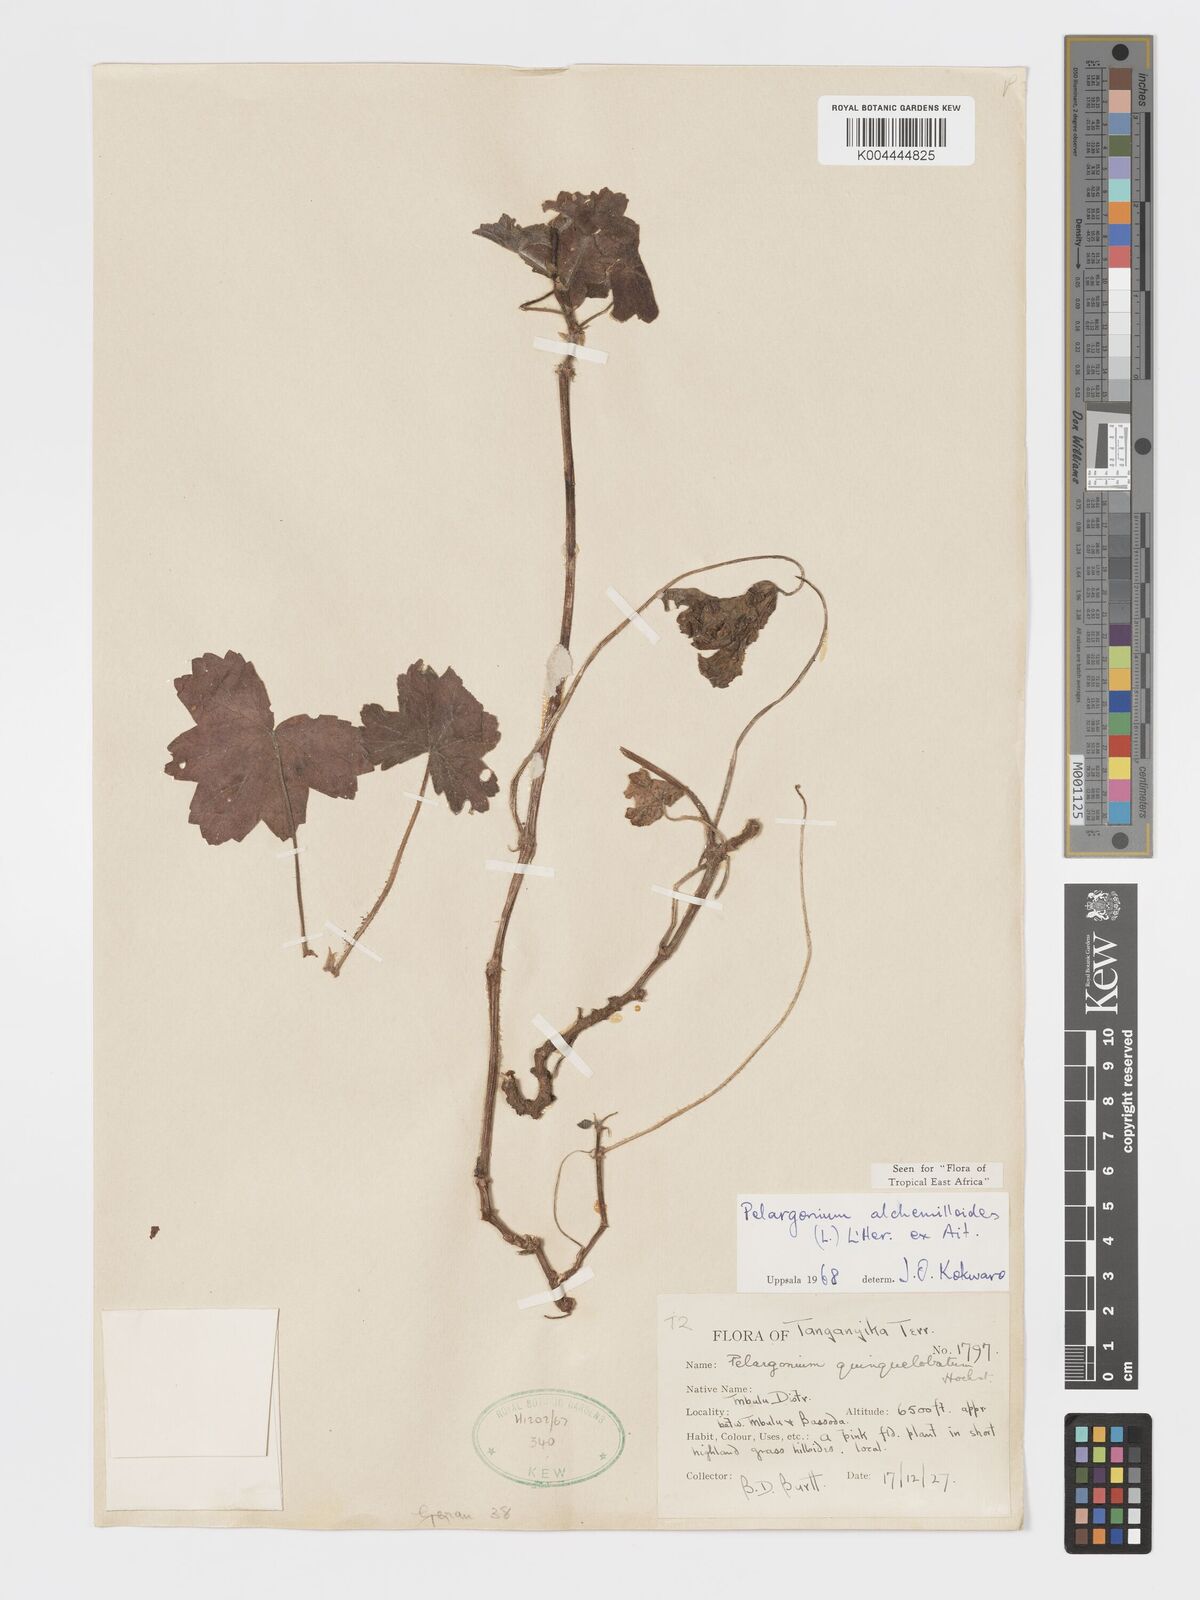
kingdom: Plantae
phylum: Tracheophyta
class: Magnoliopsida
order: Geraniales
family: Geraniaceae
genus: Pelargonium
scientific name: Pelargonium alchemilloides
